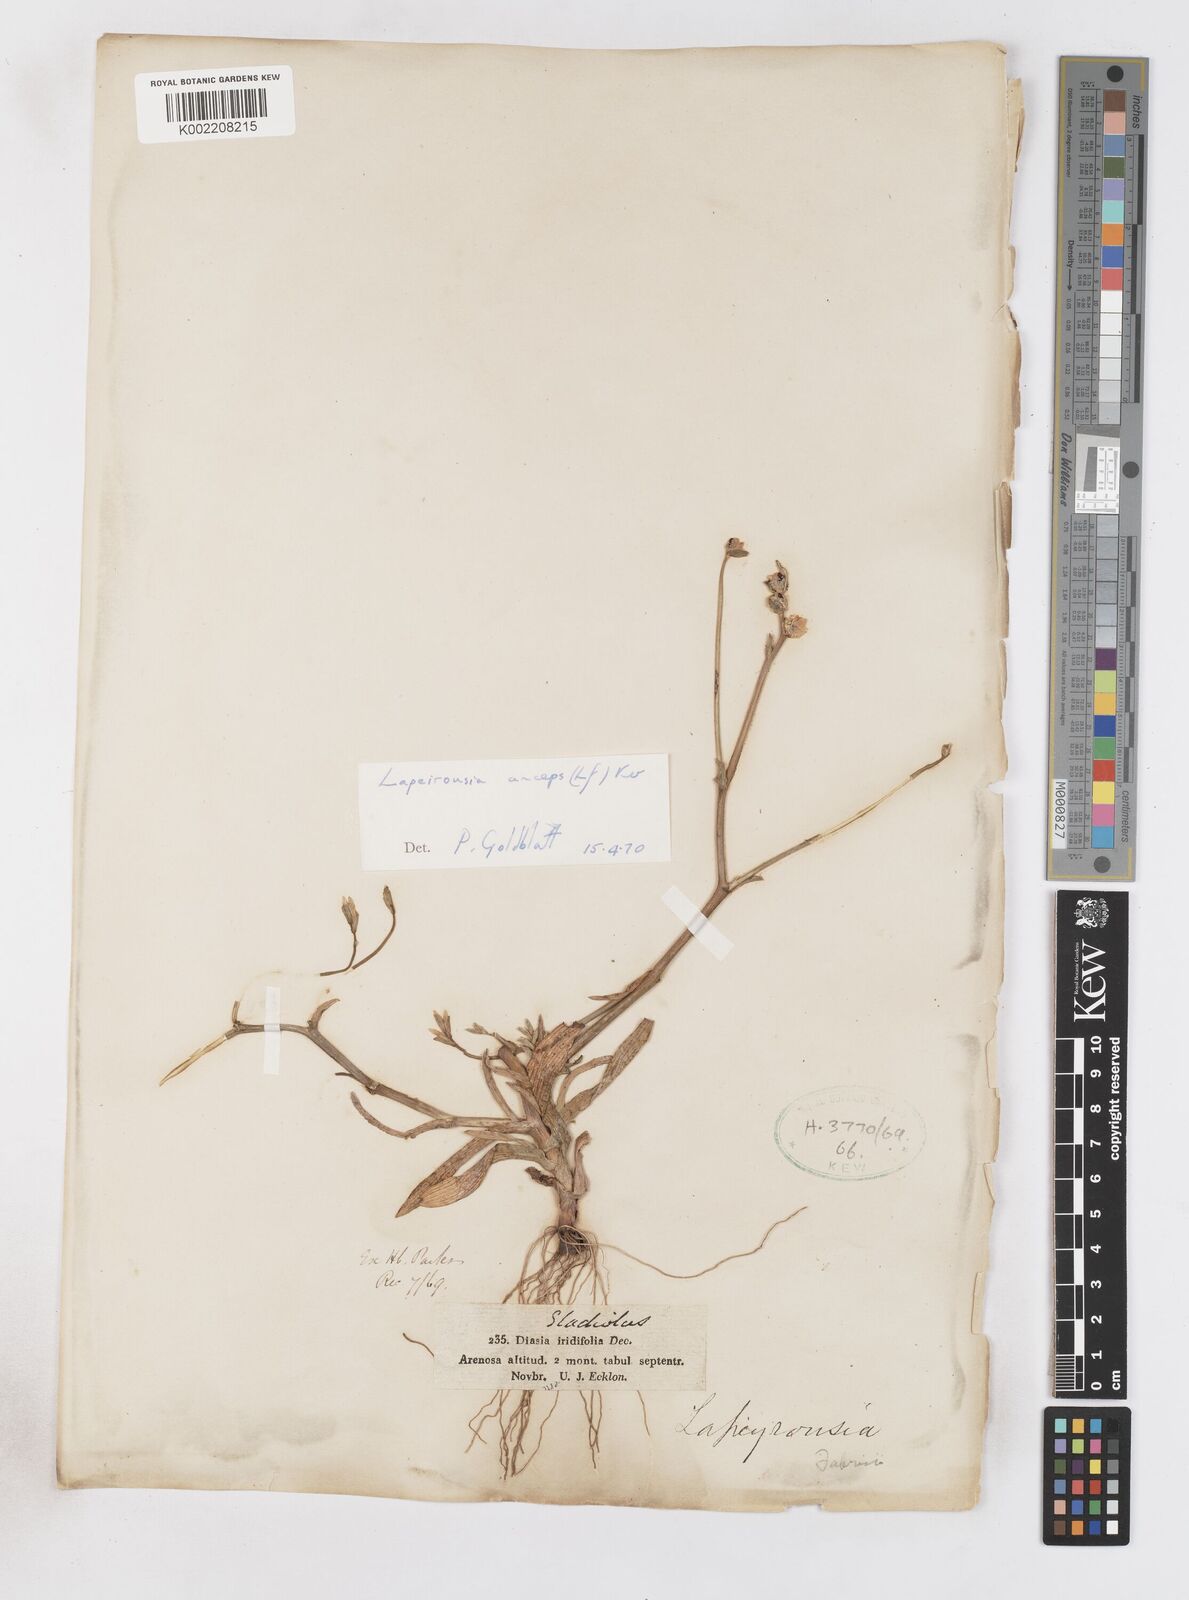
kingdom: Plantae
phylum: Tracheophyta
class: Liliopsida
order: Asparagales
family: Iridaceae
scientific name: Iridaceae
